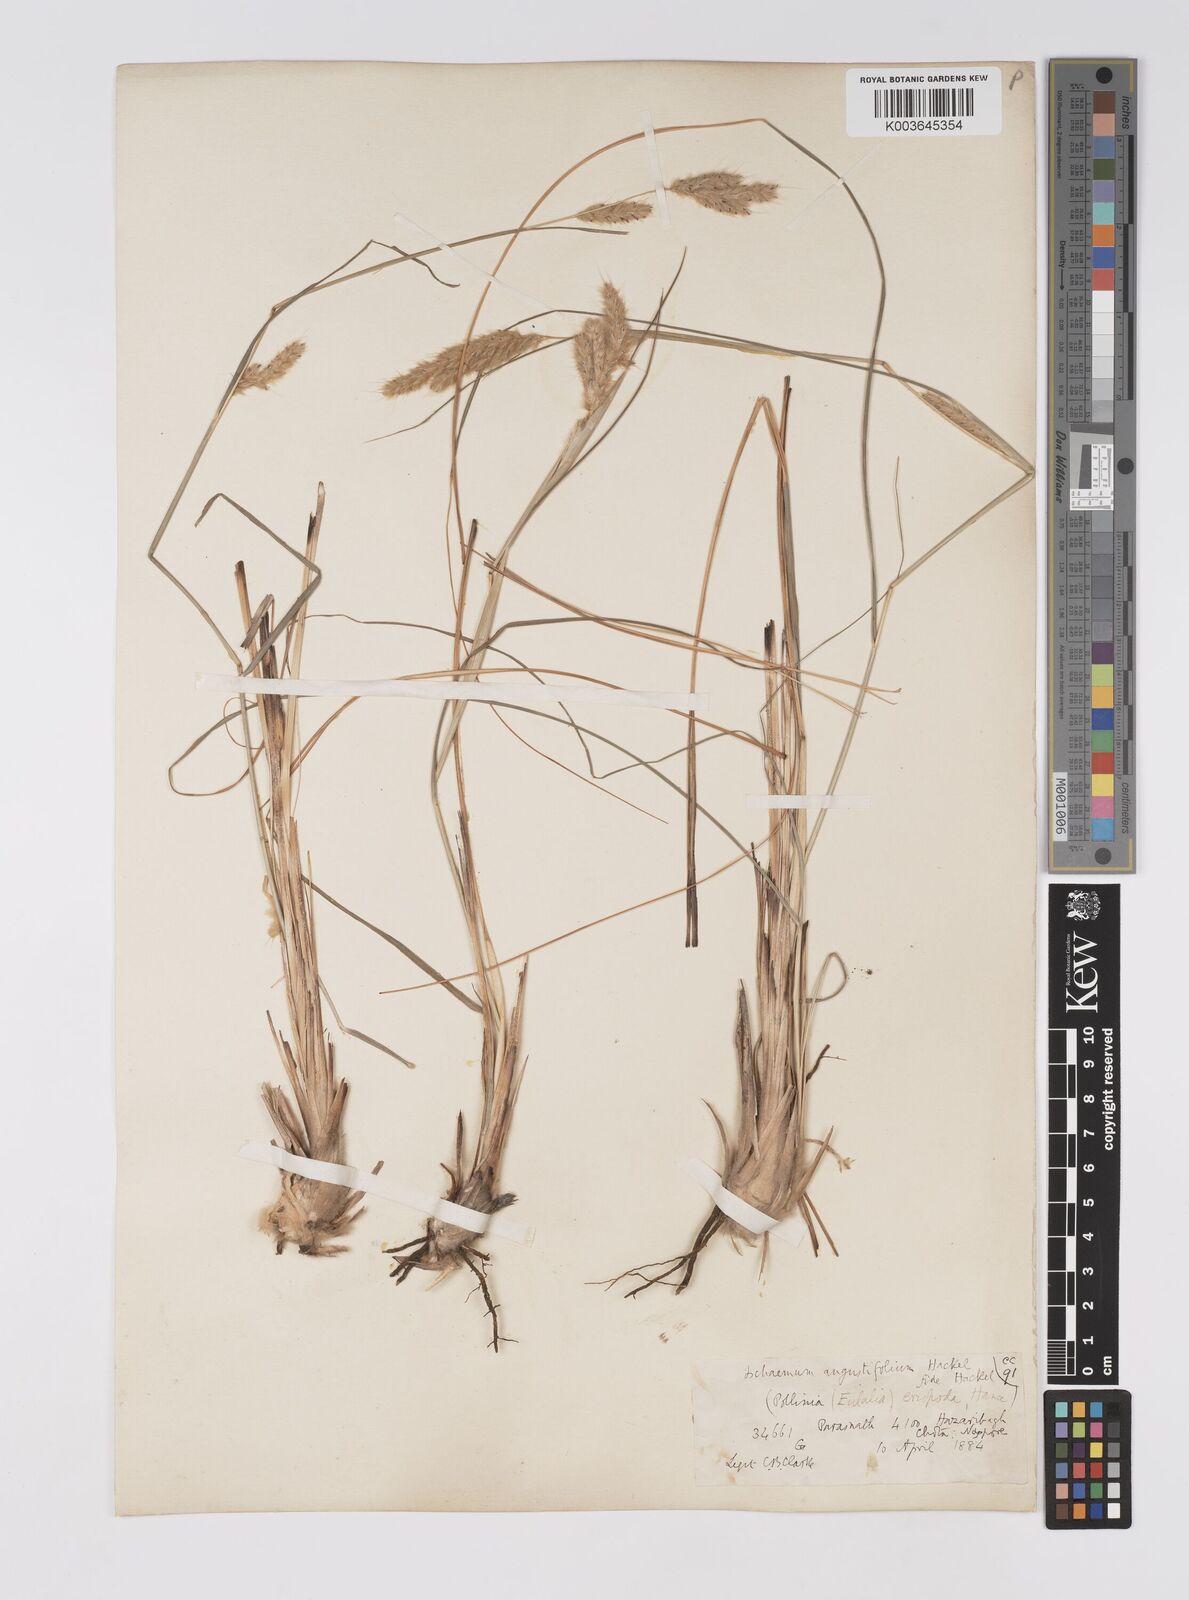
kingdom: Plantae
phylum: Tracheophyta
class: Liliopsida
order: Poales
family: Poaceae
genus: Eulaliopsis
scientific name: Eulaliopsis binata
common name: Baib grass
